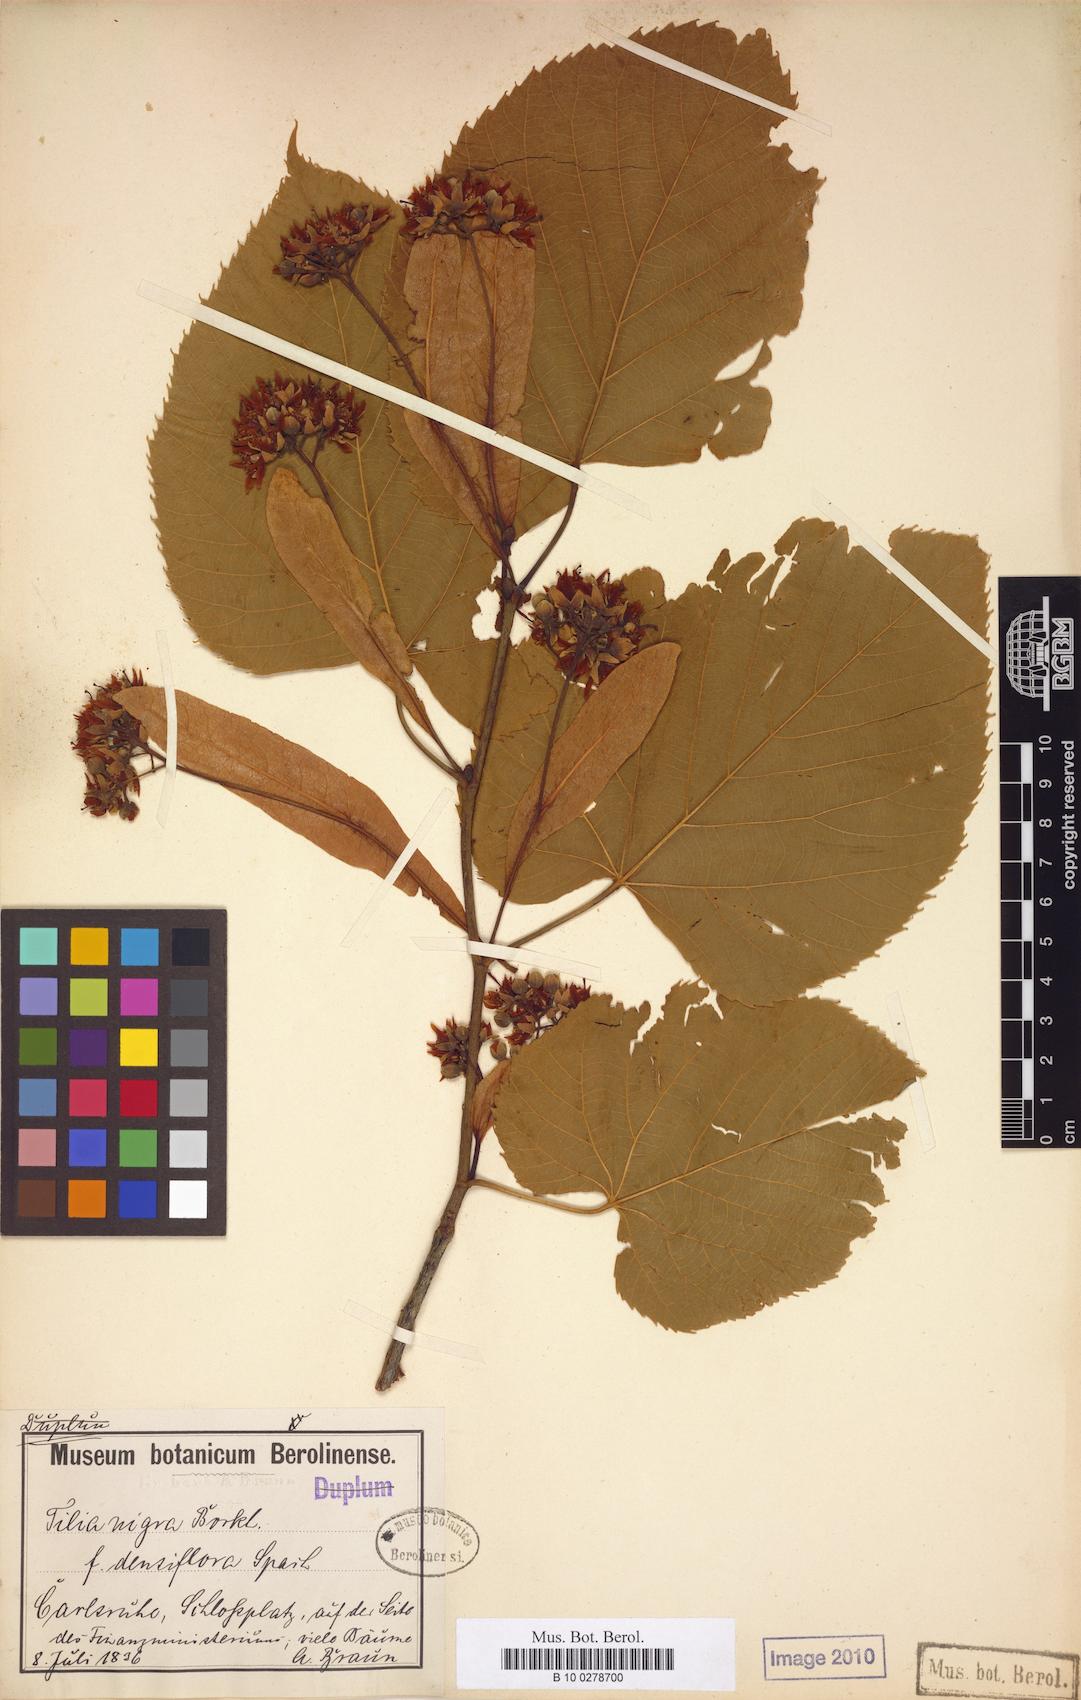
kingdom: Plantae
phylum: Tracheophyta
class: Magnoliopsida
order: Malvales
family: Malvaceae
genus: Tilia
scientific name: Tilia americana
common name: Basswood
